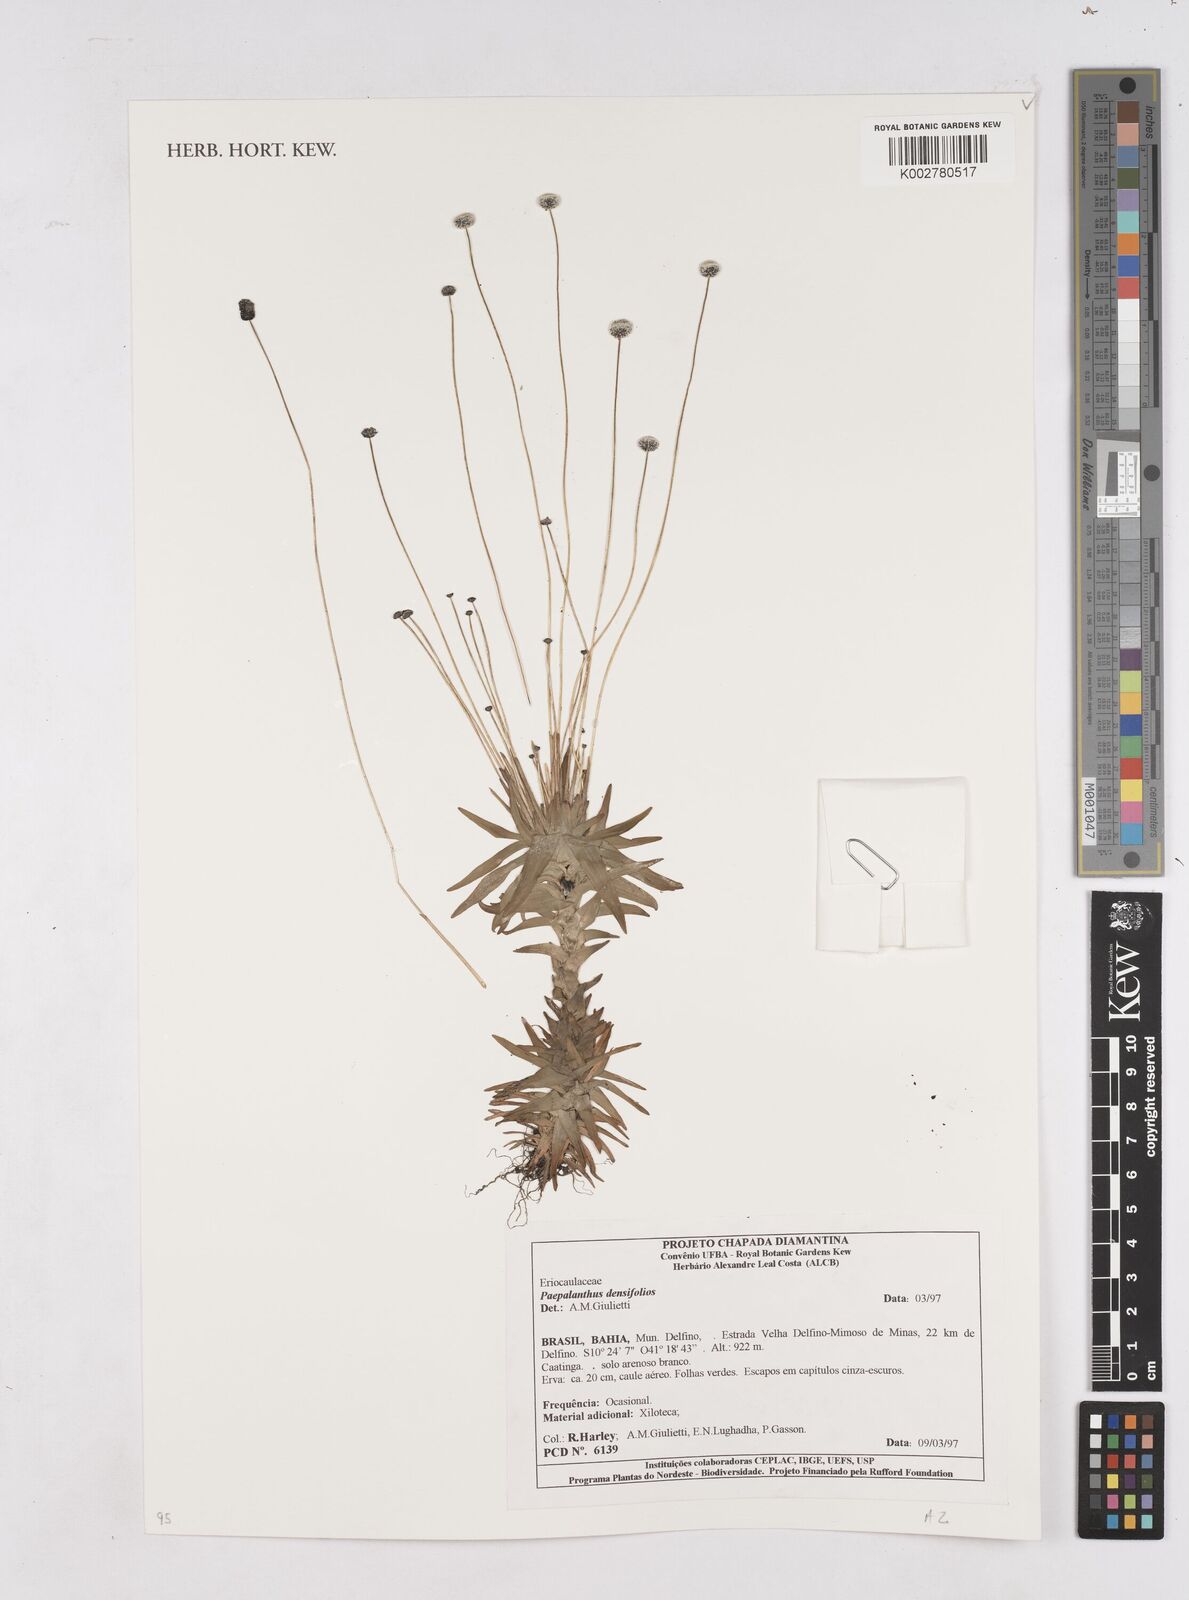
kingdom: Plantae
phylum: Tracheophyta
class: Liliopsida
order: Poales
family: Eriocaulaceae
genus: Paepalanthus
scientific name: Paepalanthus obtusifolius
